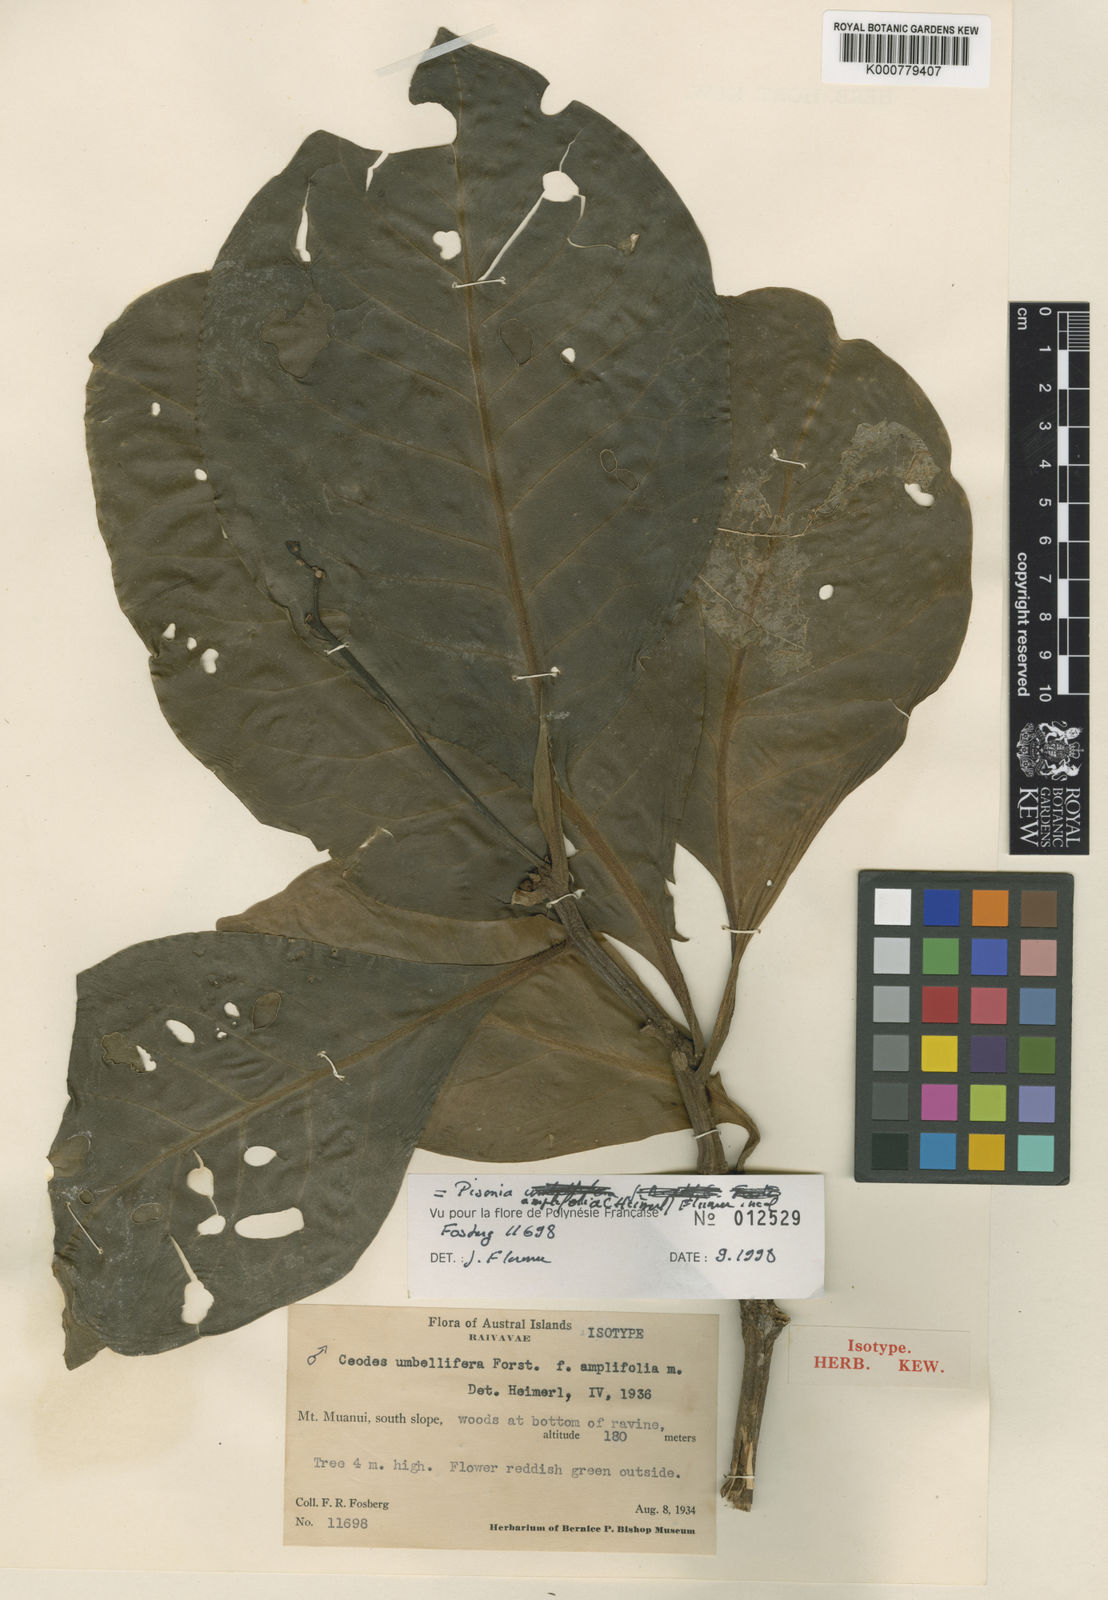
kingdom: Plantae
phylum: Tracheophyta
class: Magnoliopsida
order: Caryophyllales
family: Nyctaginaceae
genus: Ceodes
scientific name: Ceodes umbellifera
